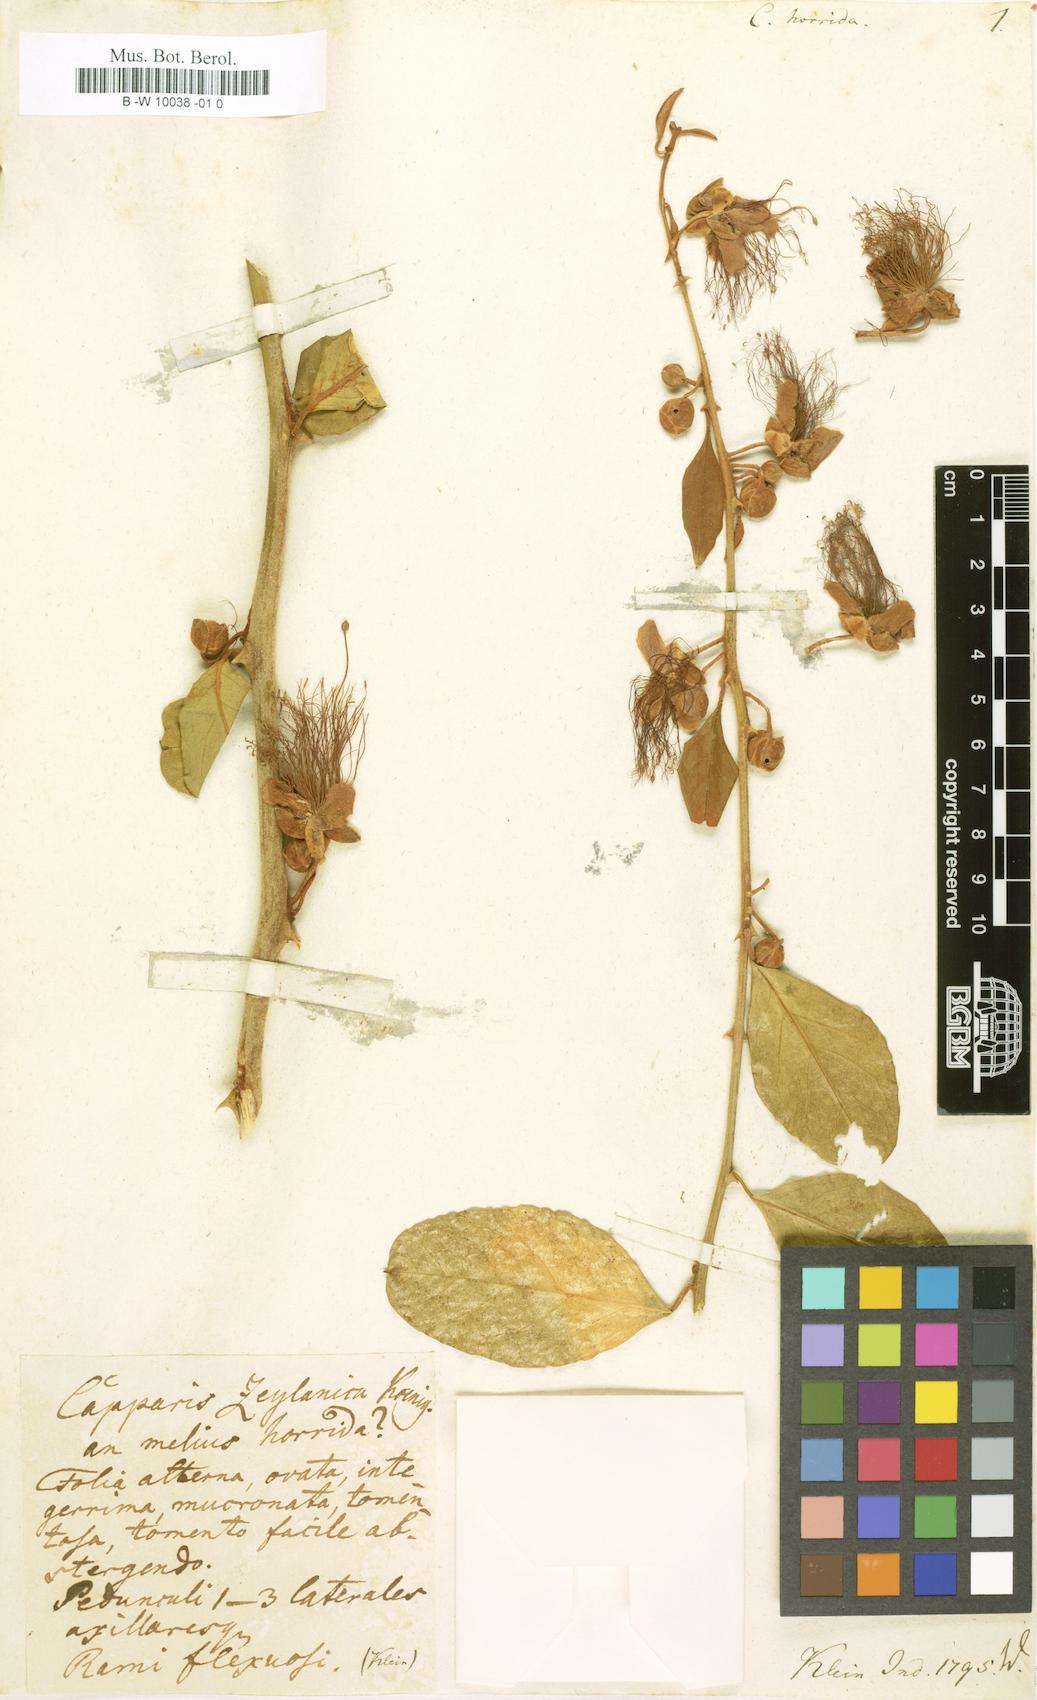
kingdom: Plantae
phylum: Tracheophyta
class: Magnoliopsida
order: Brassicales
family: Capparaceae
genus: Capparis
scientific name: Capparis
